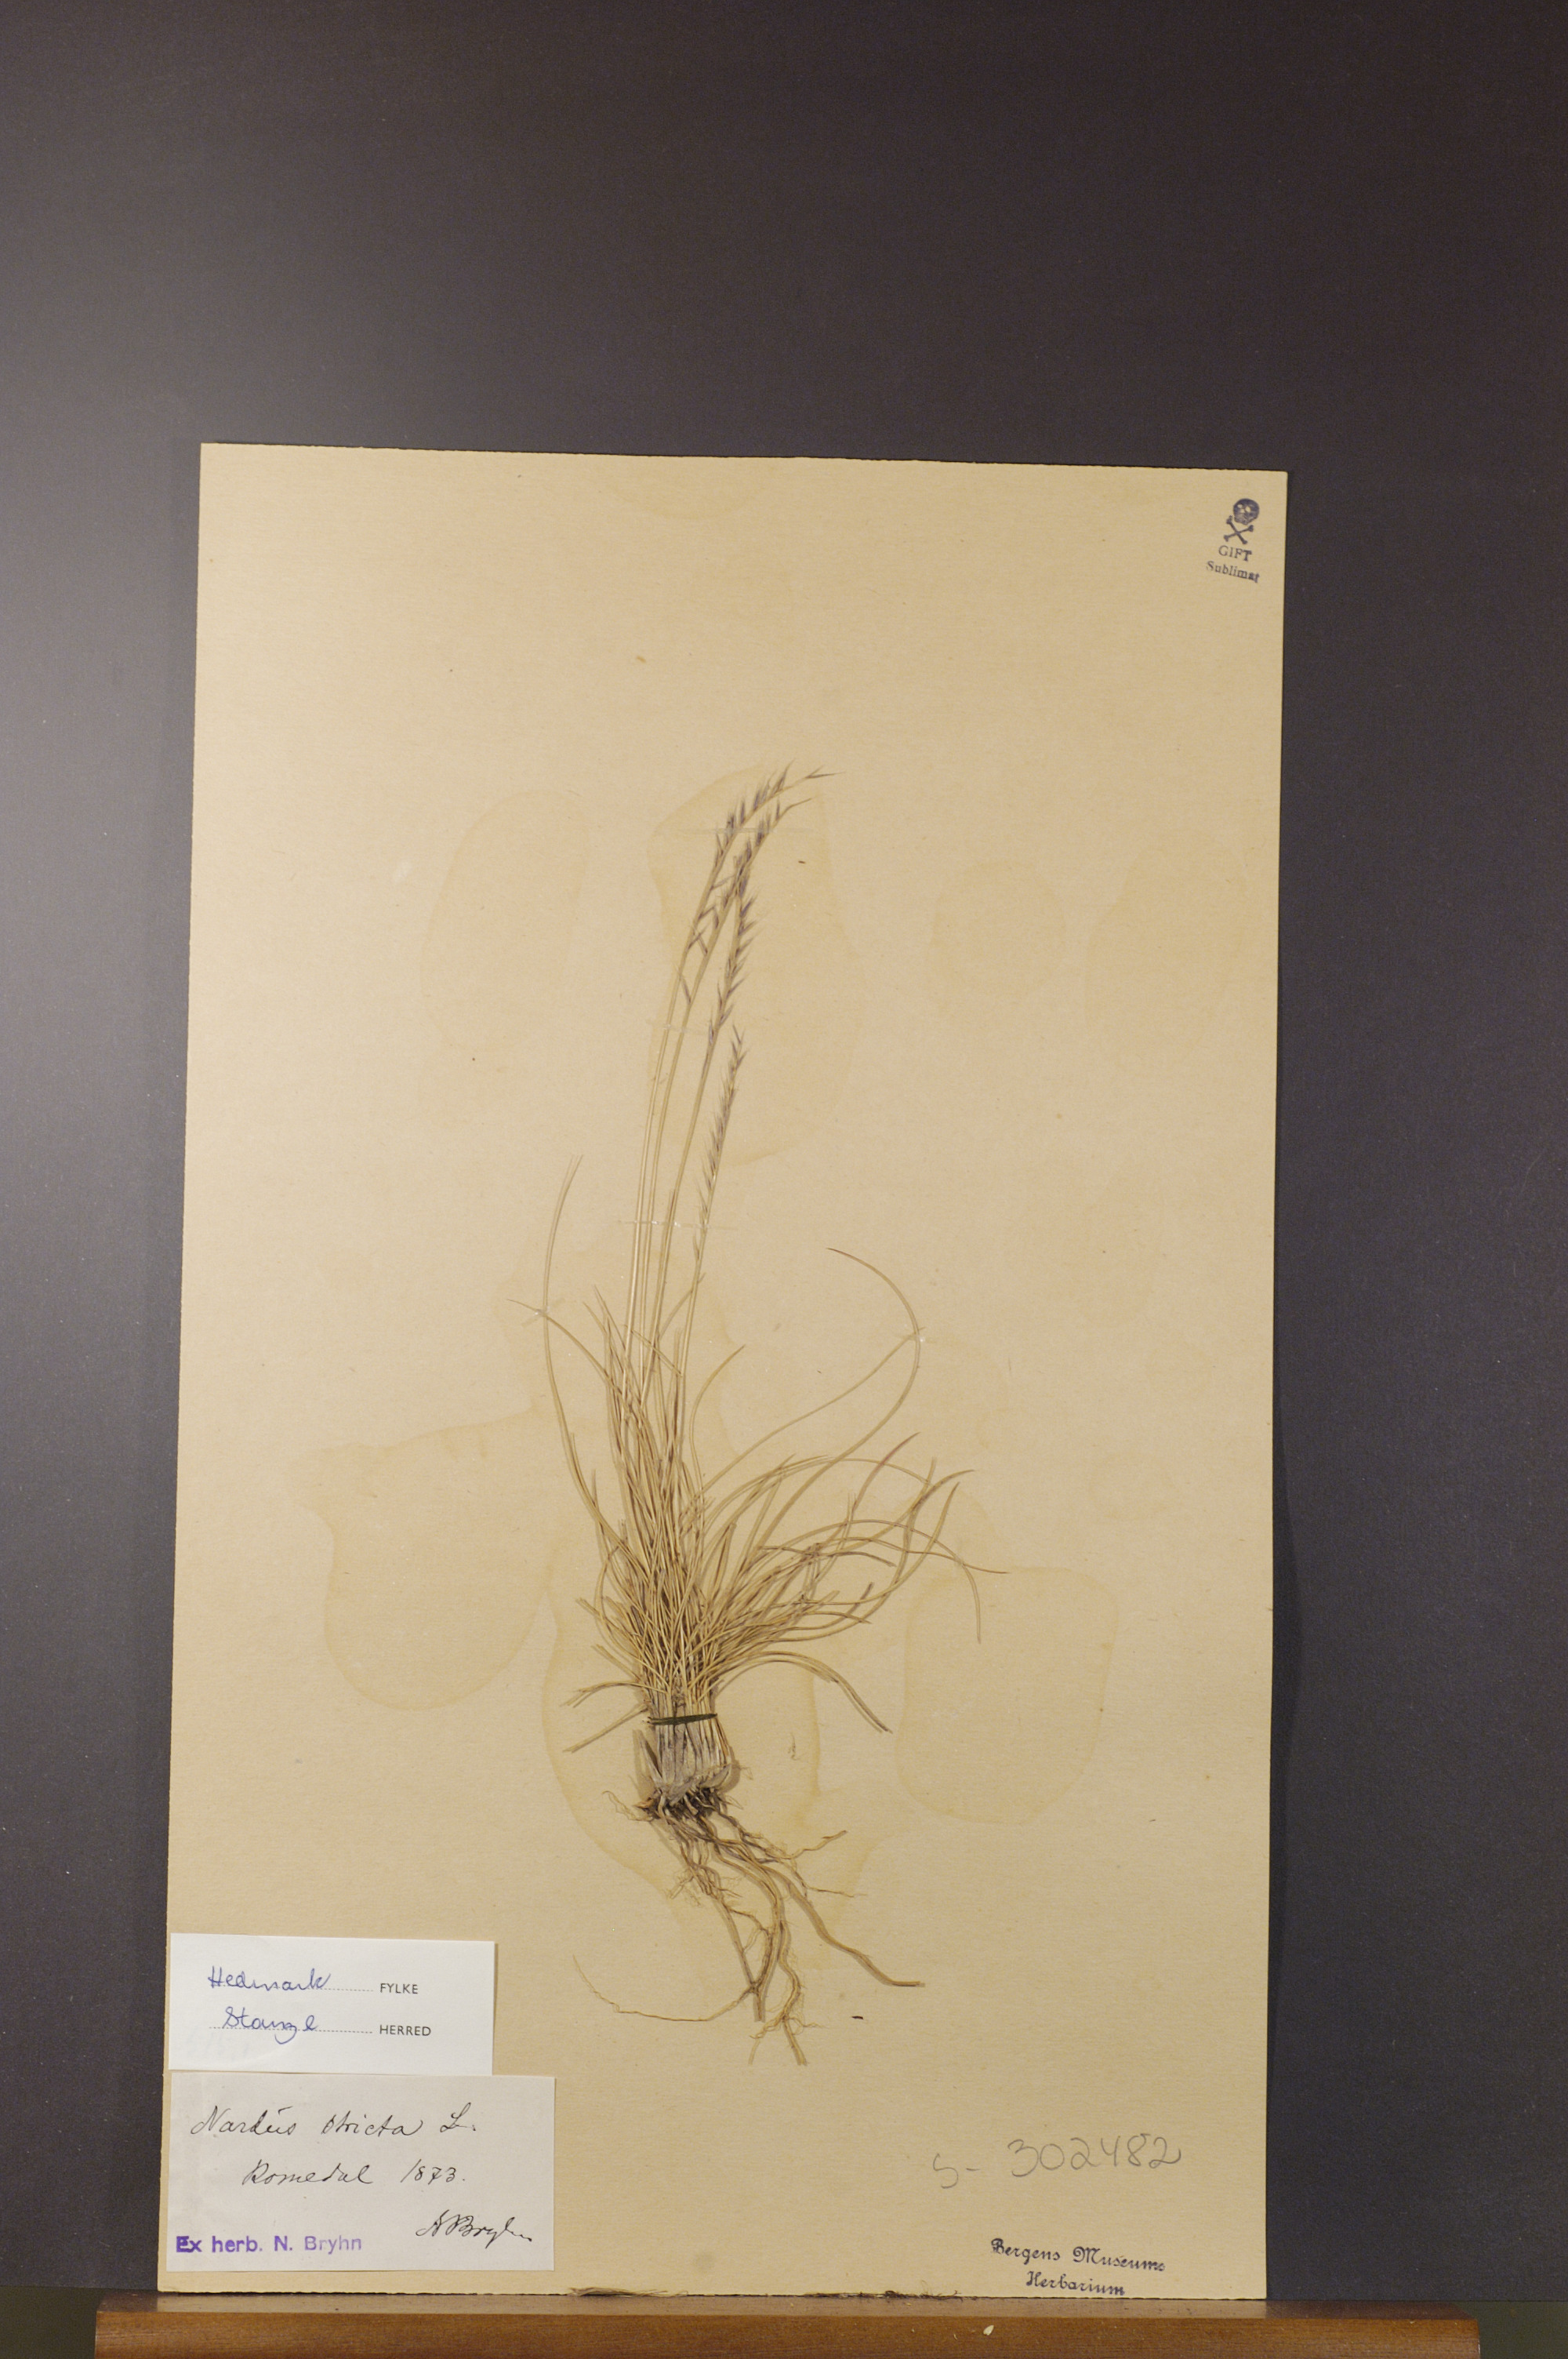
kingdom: Plantae
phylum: Tracheophyta
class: Liliopsida
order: Poales
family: Poaceae
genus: Nardus
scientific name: Nardus stricta
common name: Mat-grass
